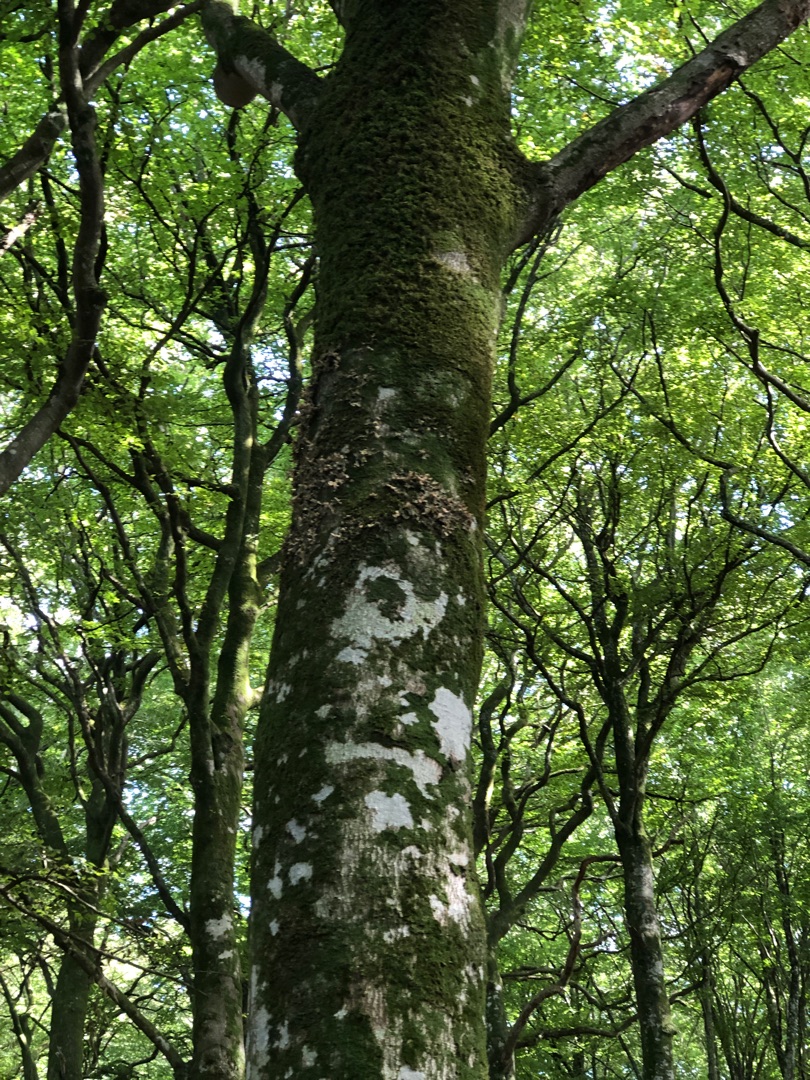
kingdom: Fungi
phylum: Ascomycota
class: Lecanoromycetes
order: Peltigerales
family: Lobariaceae
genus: Lobaria
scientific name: Lobaria pulmonaria
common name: Almindelig lungelav
